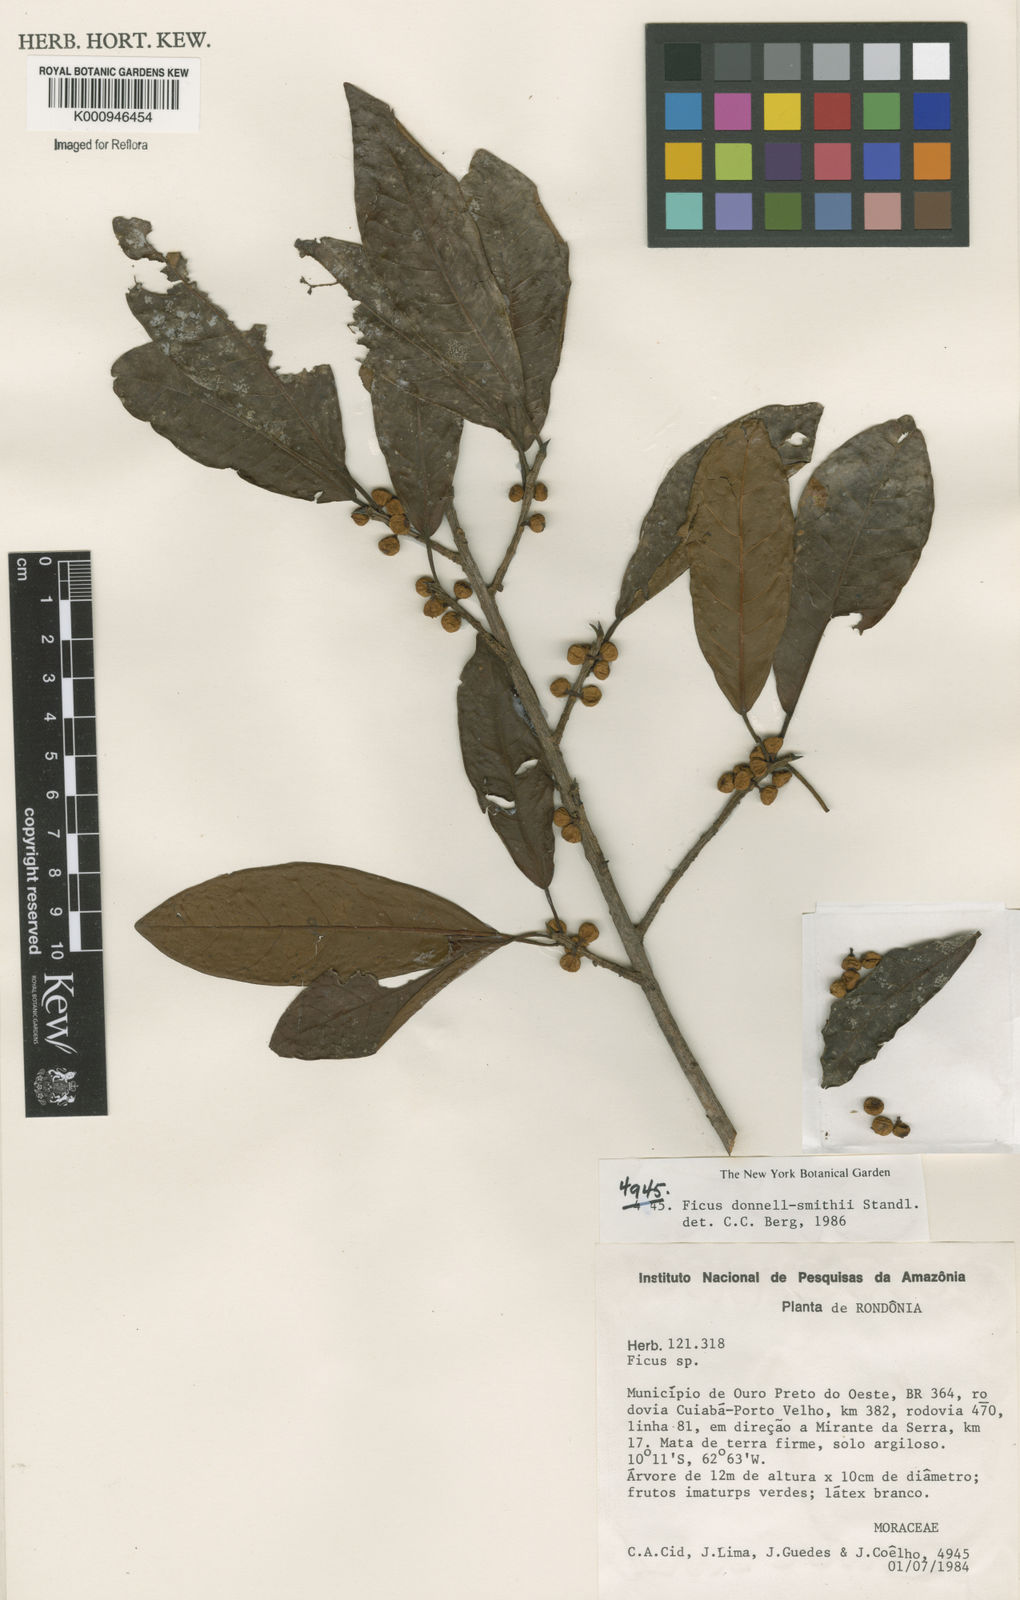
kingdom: Plantae
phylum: Tracheophyta
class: Magnoliopsida
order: Rosales
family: Moraceae
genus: Ficus
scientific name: Ficus donnell-smithii
